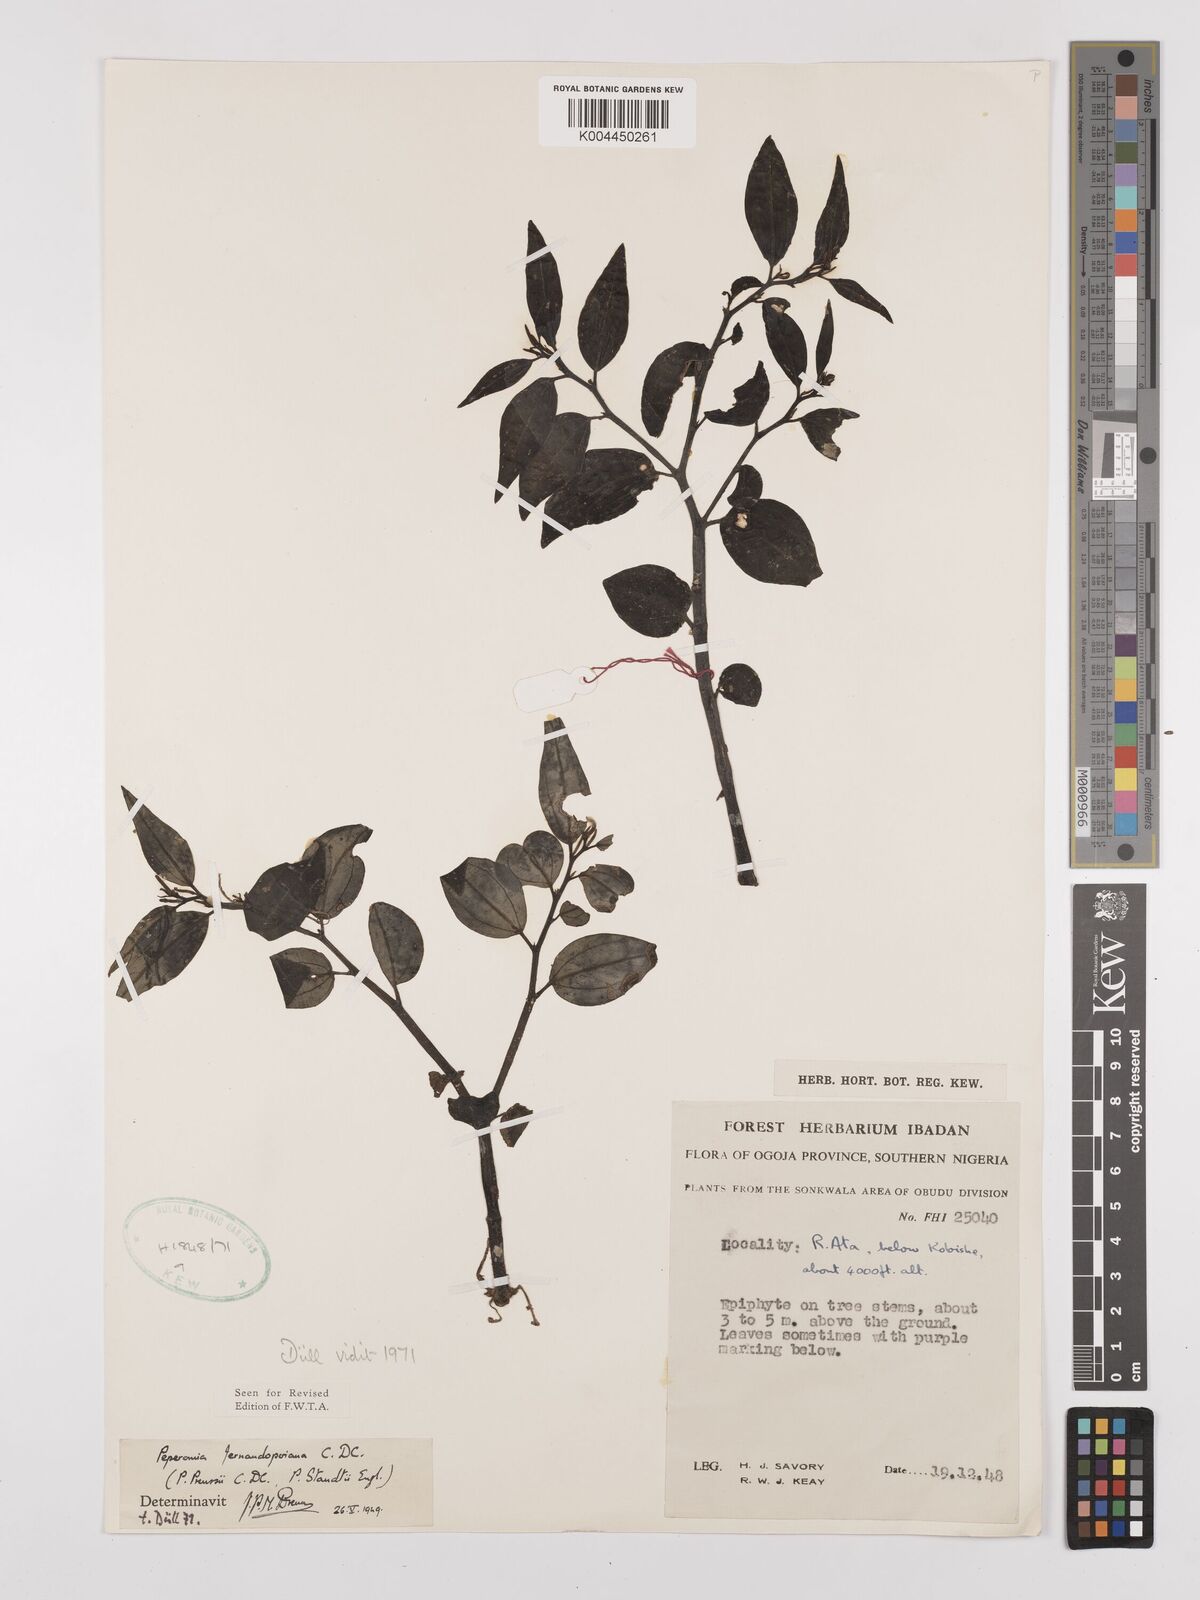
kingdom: Plantae
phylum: Tracheophyta
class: Magnoliopsida
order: Piperales
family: Piperaceae
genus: Peperomia
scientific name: Peperomia fernandeziana
